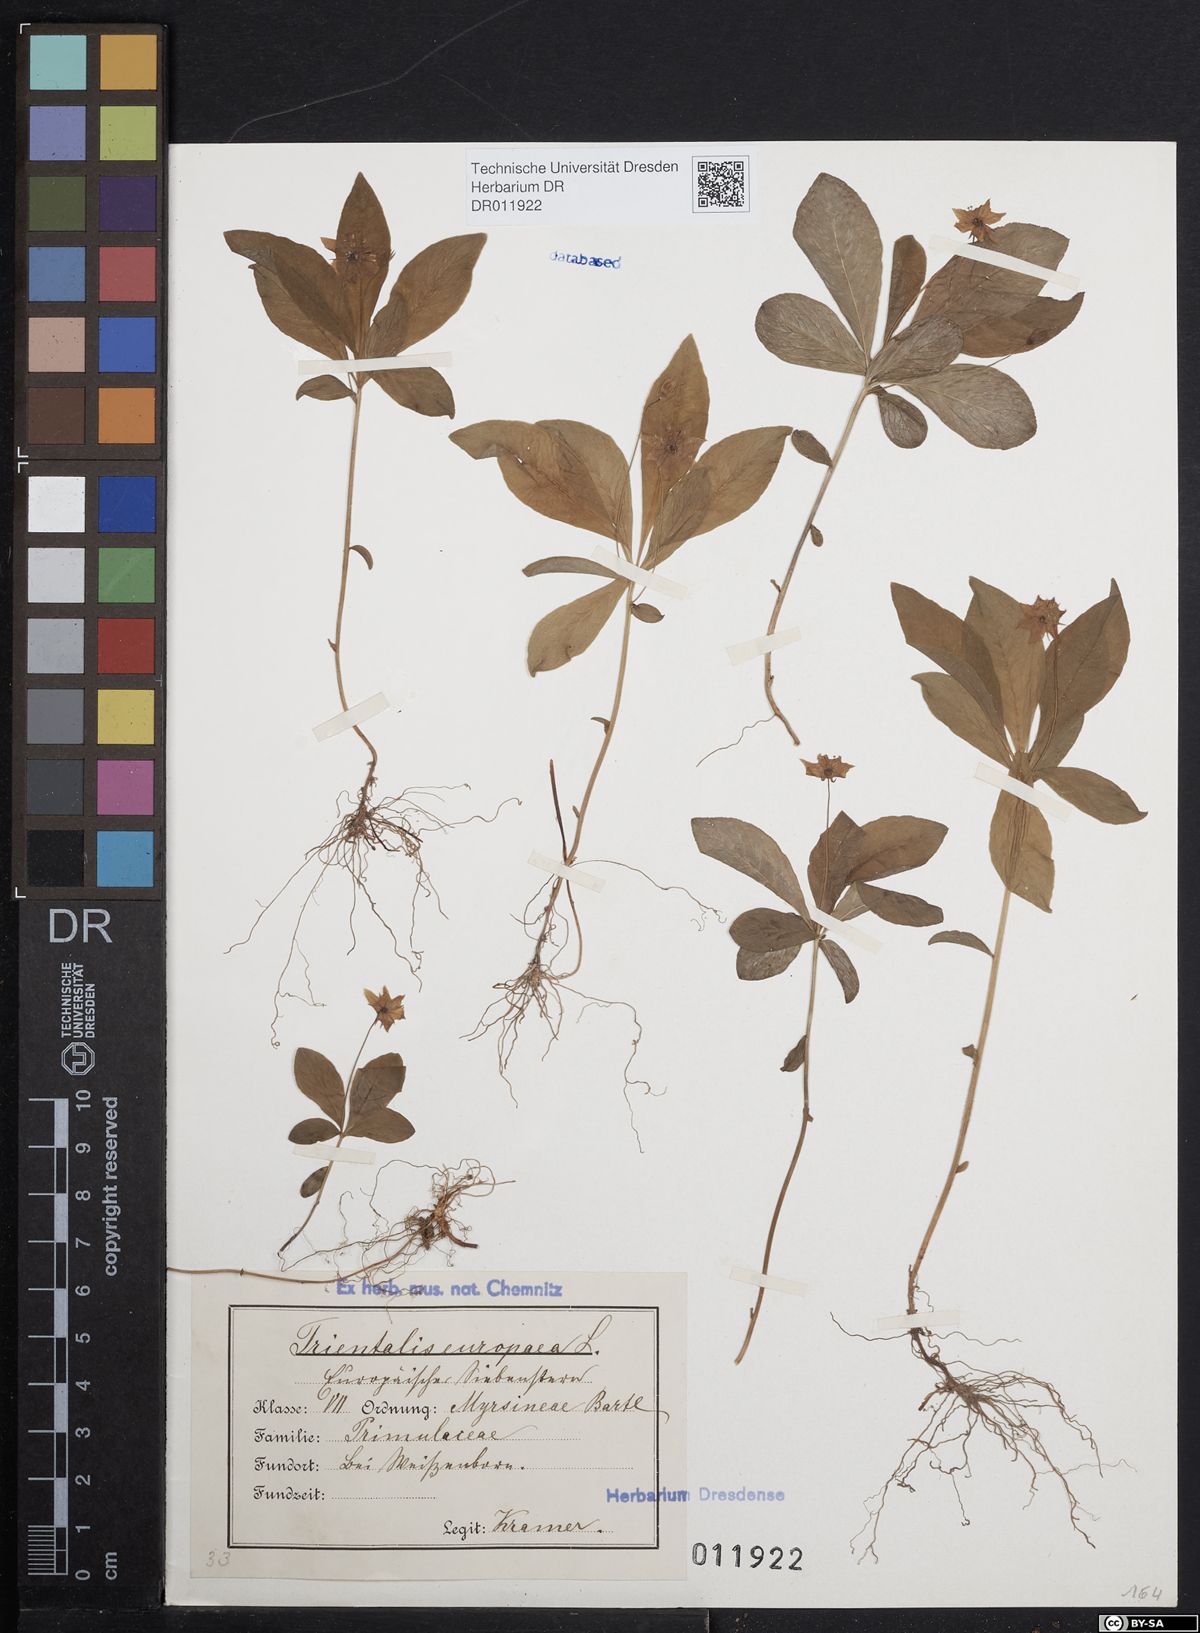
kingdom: Plantae
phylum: Tracheophyta
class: Magnoliopsida
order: Ericales
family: Primulaceae
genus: Lysimachia
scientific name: Lysimachia europaea
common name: Arctic starflower
